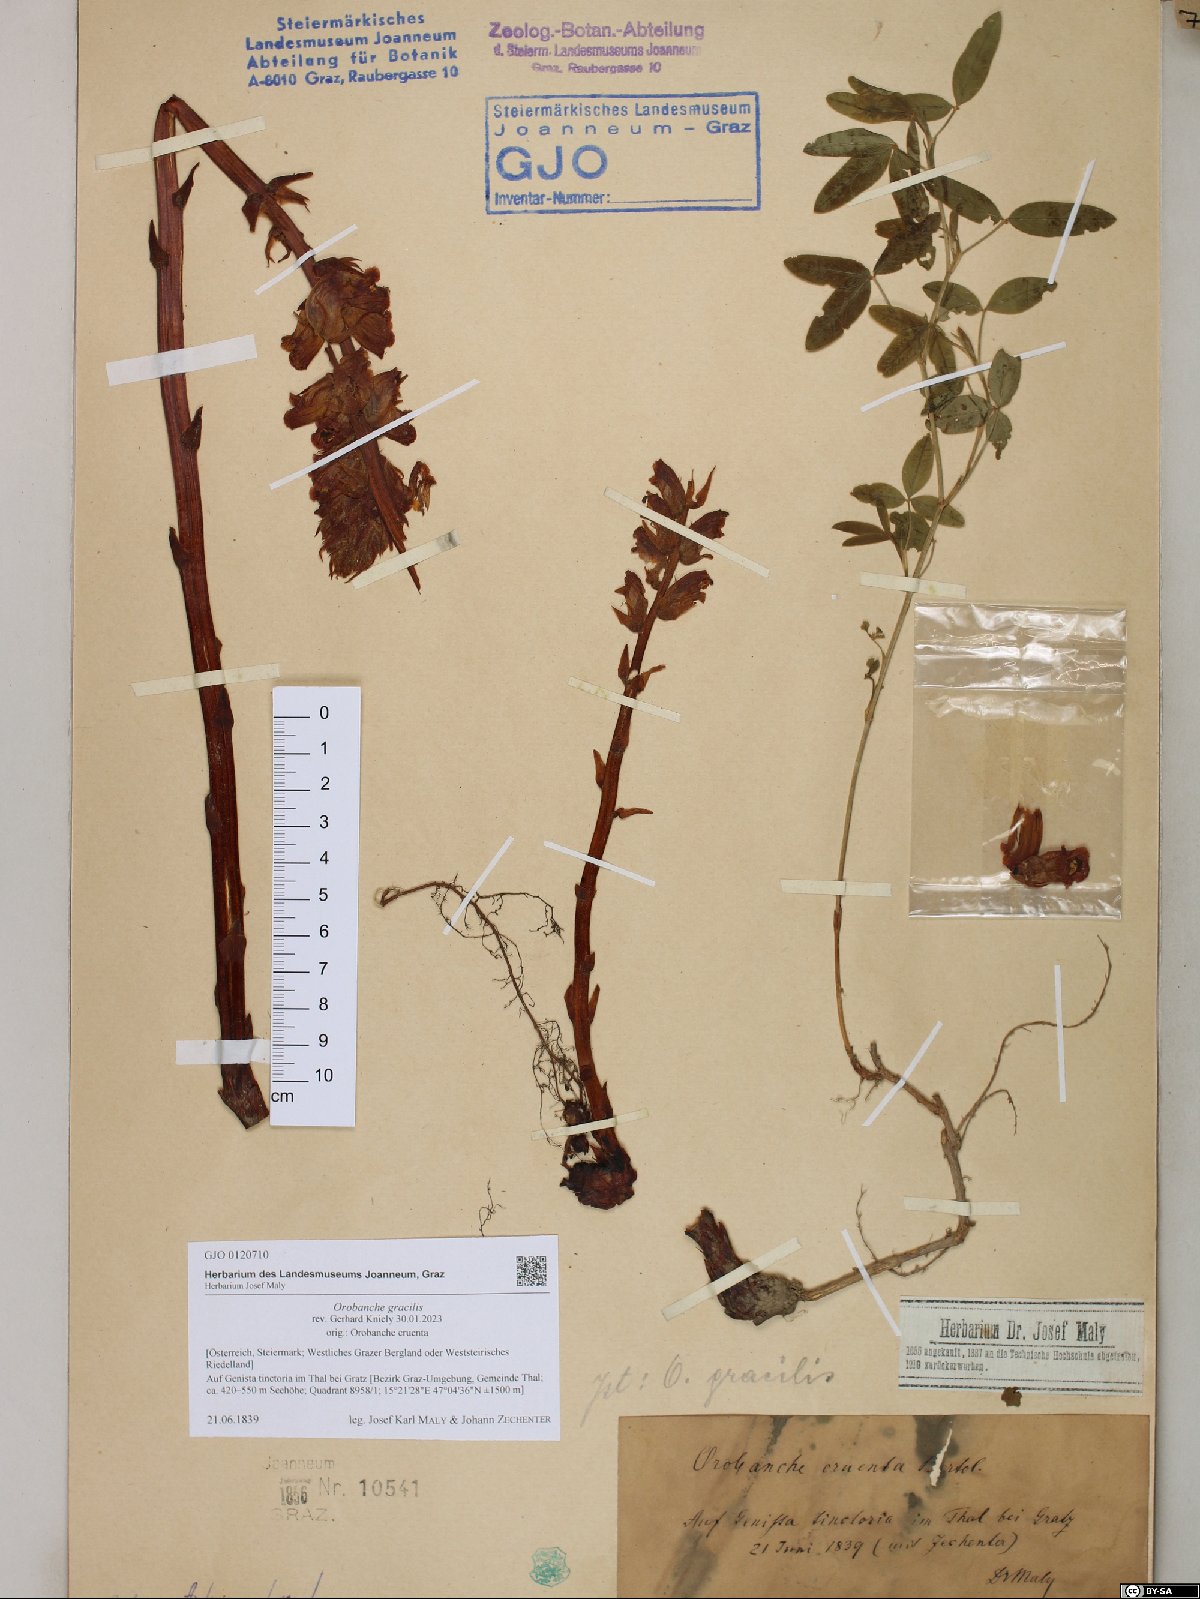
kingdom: Plantae
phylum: Tracheophyta
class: Magnoliopsida
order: Lamiales
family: Orobanchaceae
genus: Orobanche
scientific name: Orobanche gracilis
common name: Slender broomrape
